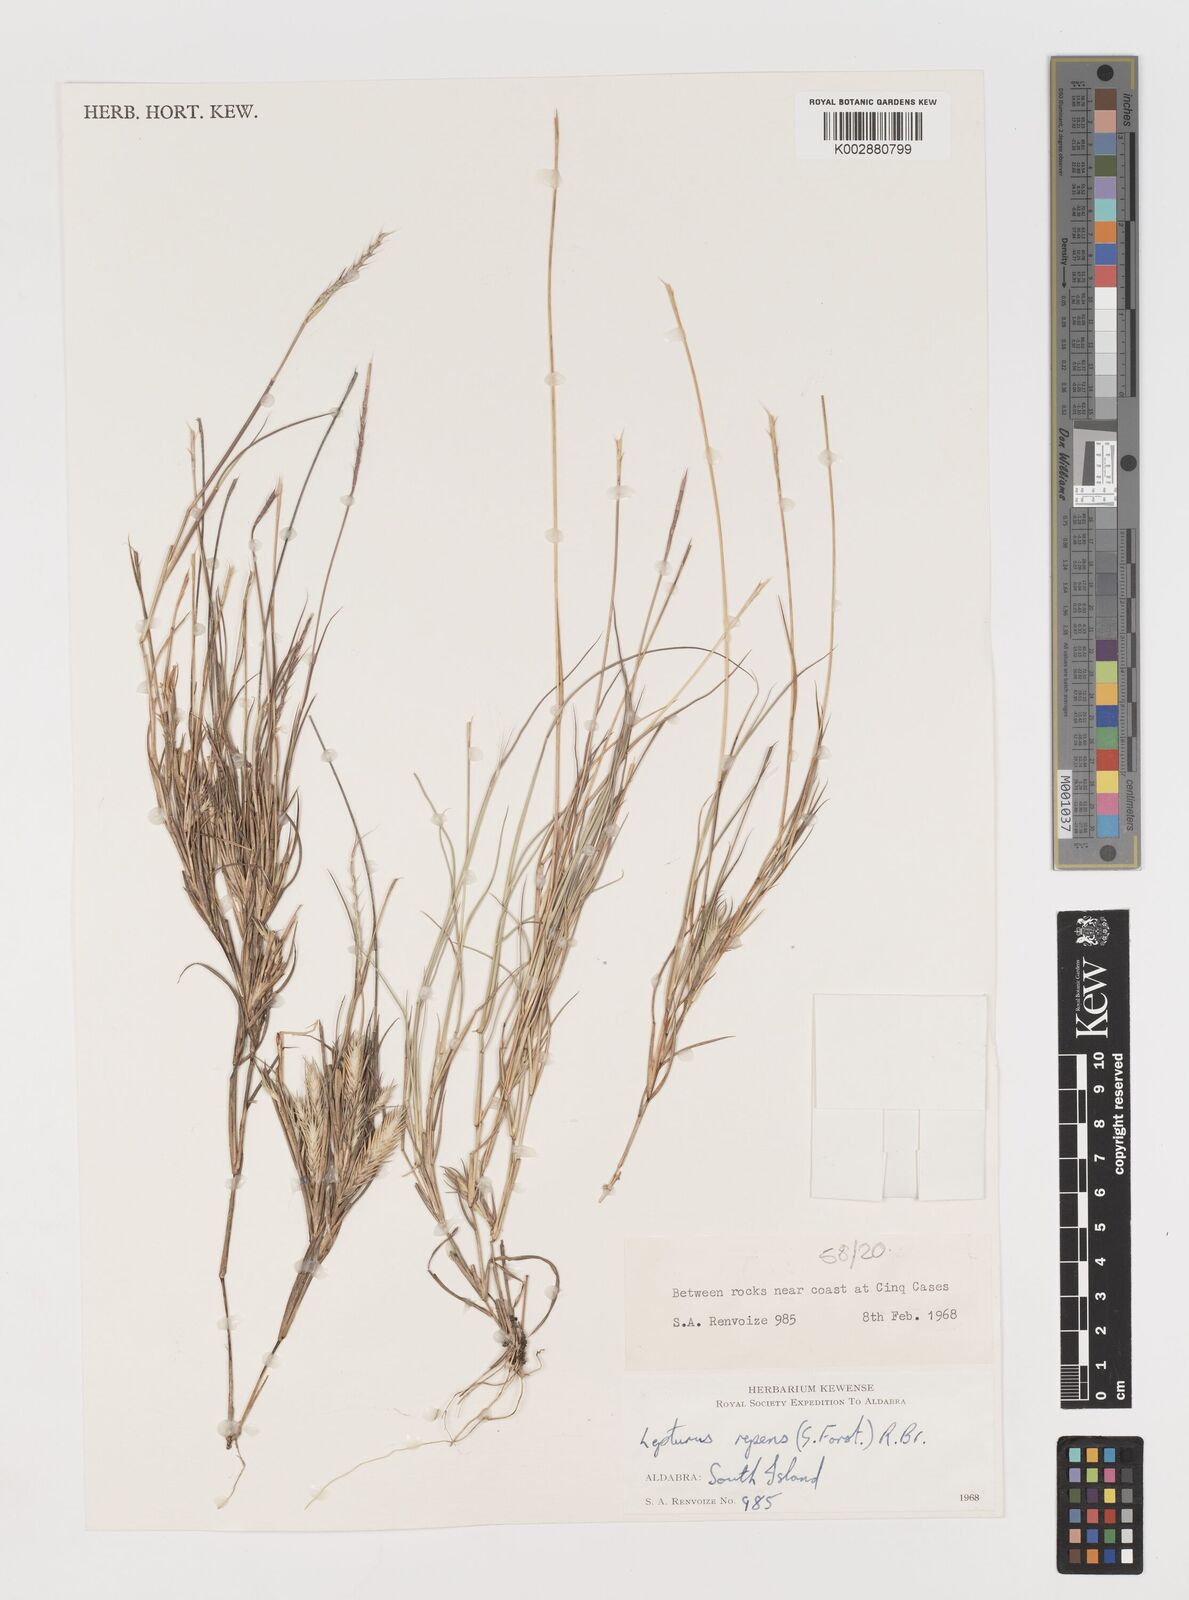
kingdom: Plantae
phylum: Tracheophyta
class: Liliopsida
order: Poales
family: Poaceae
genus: Lepturus
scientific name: Lepturus repens
